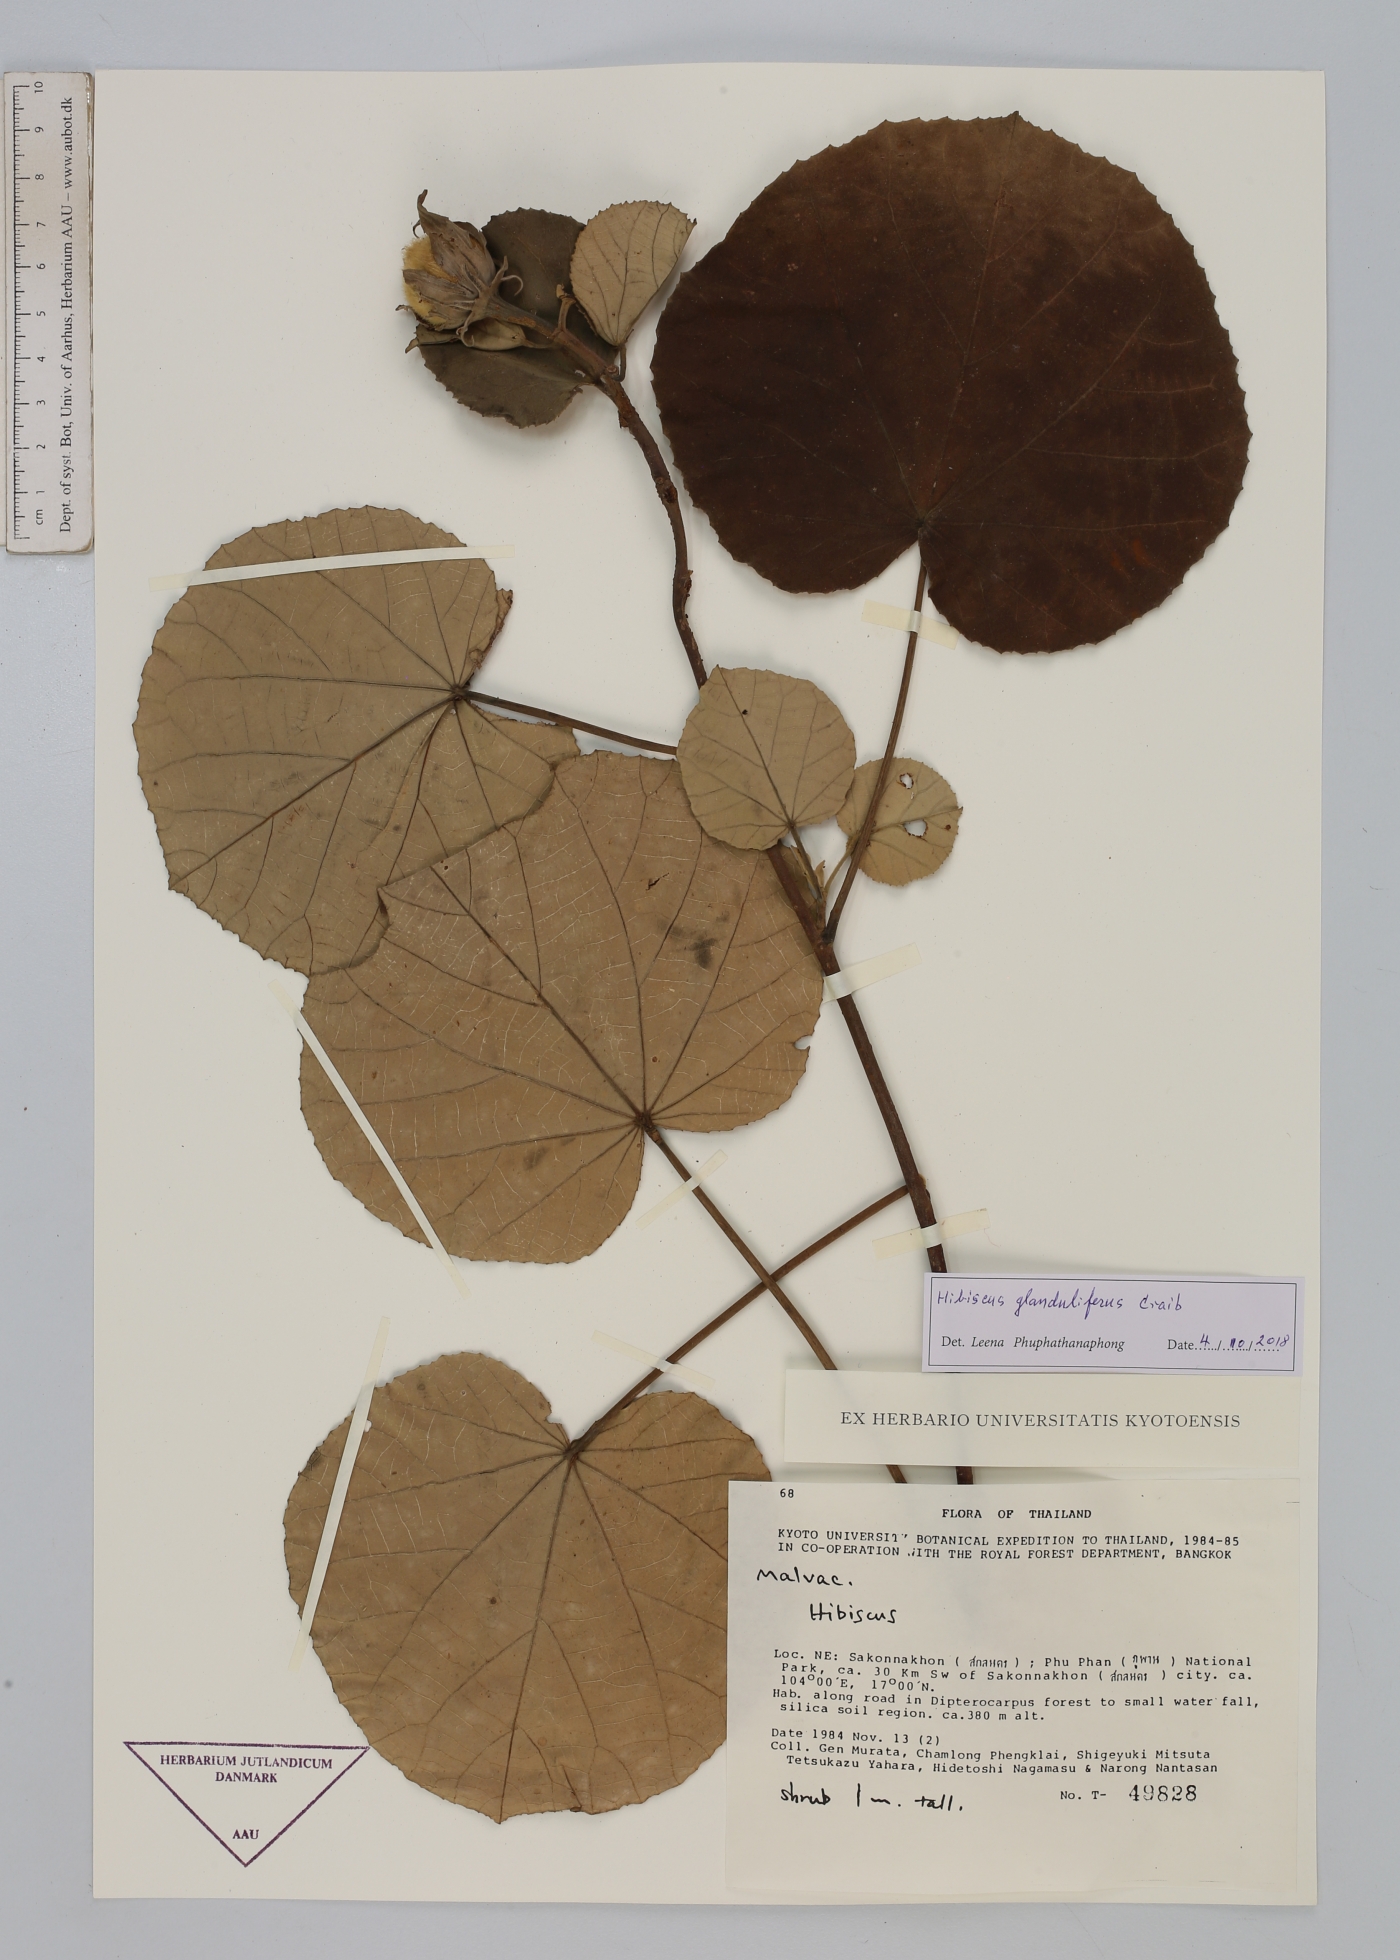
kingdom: Plantae
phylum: Tracheophyta
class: Magnoliopsida
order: Malvales
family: Malvaceae
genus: Hibiscus
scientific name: Hibiscus glanduliferus
